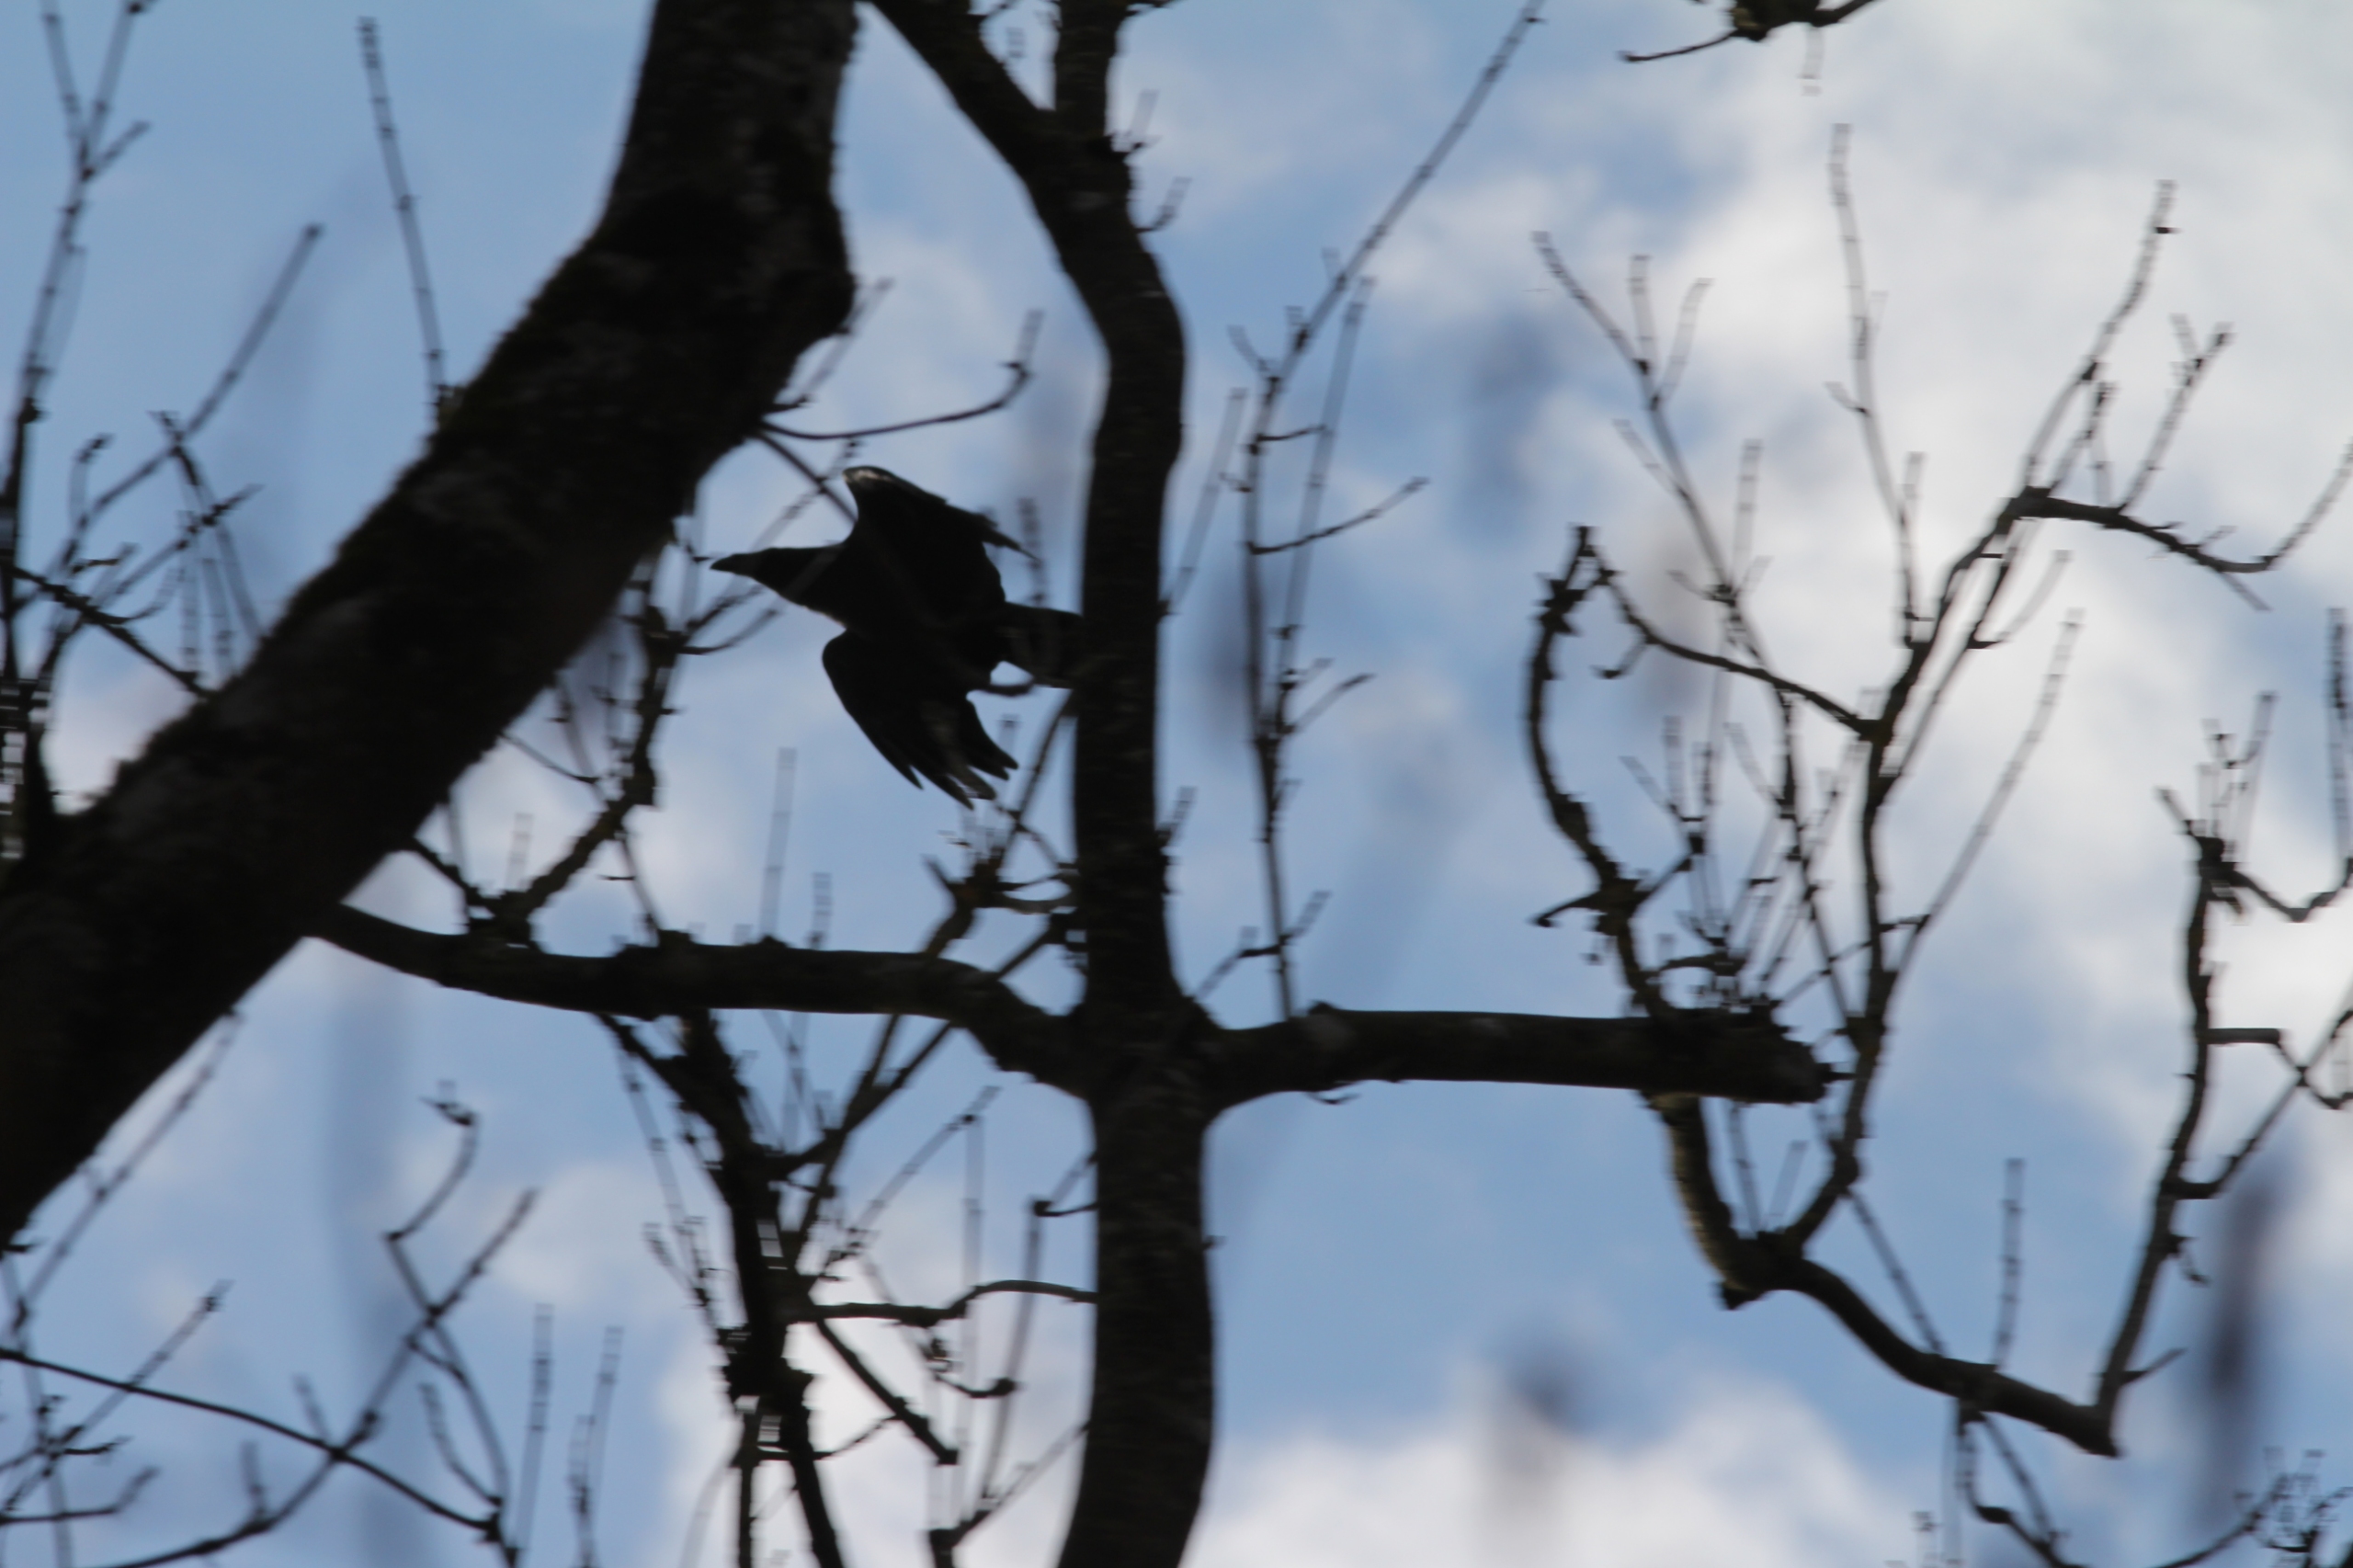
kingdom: Animalia
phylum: Chordata
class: Aves
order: Passeriformes
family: Corvidae
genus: Corvus
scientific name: Corvus corax
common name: Ravn
